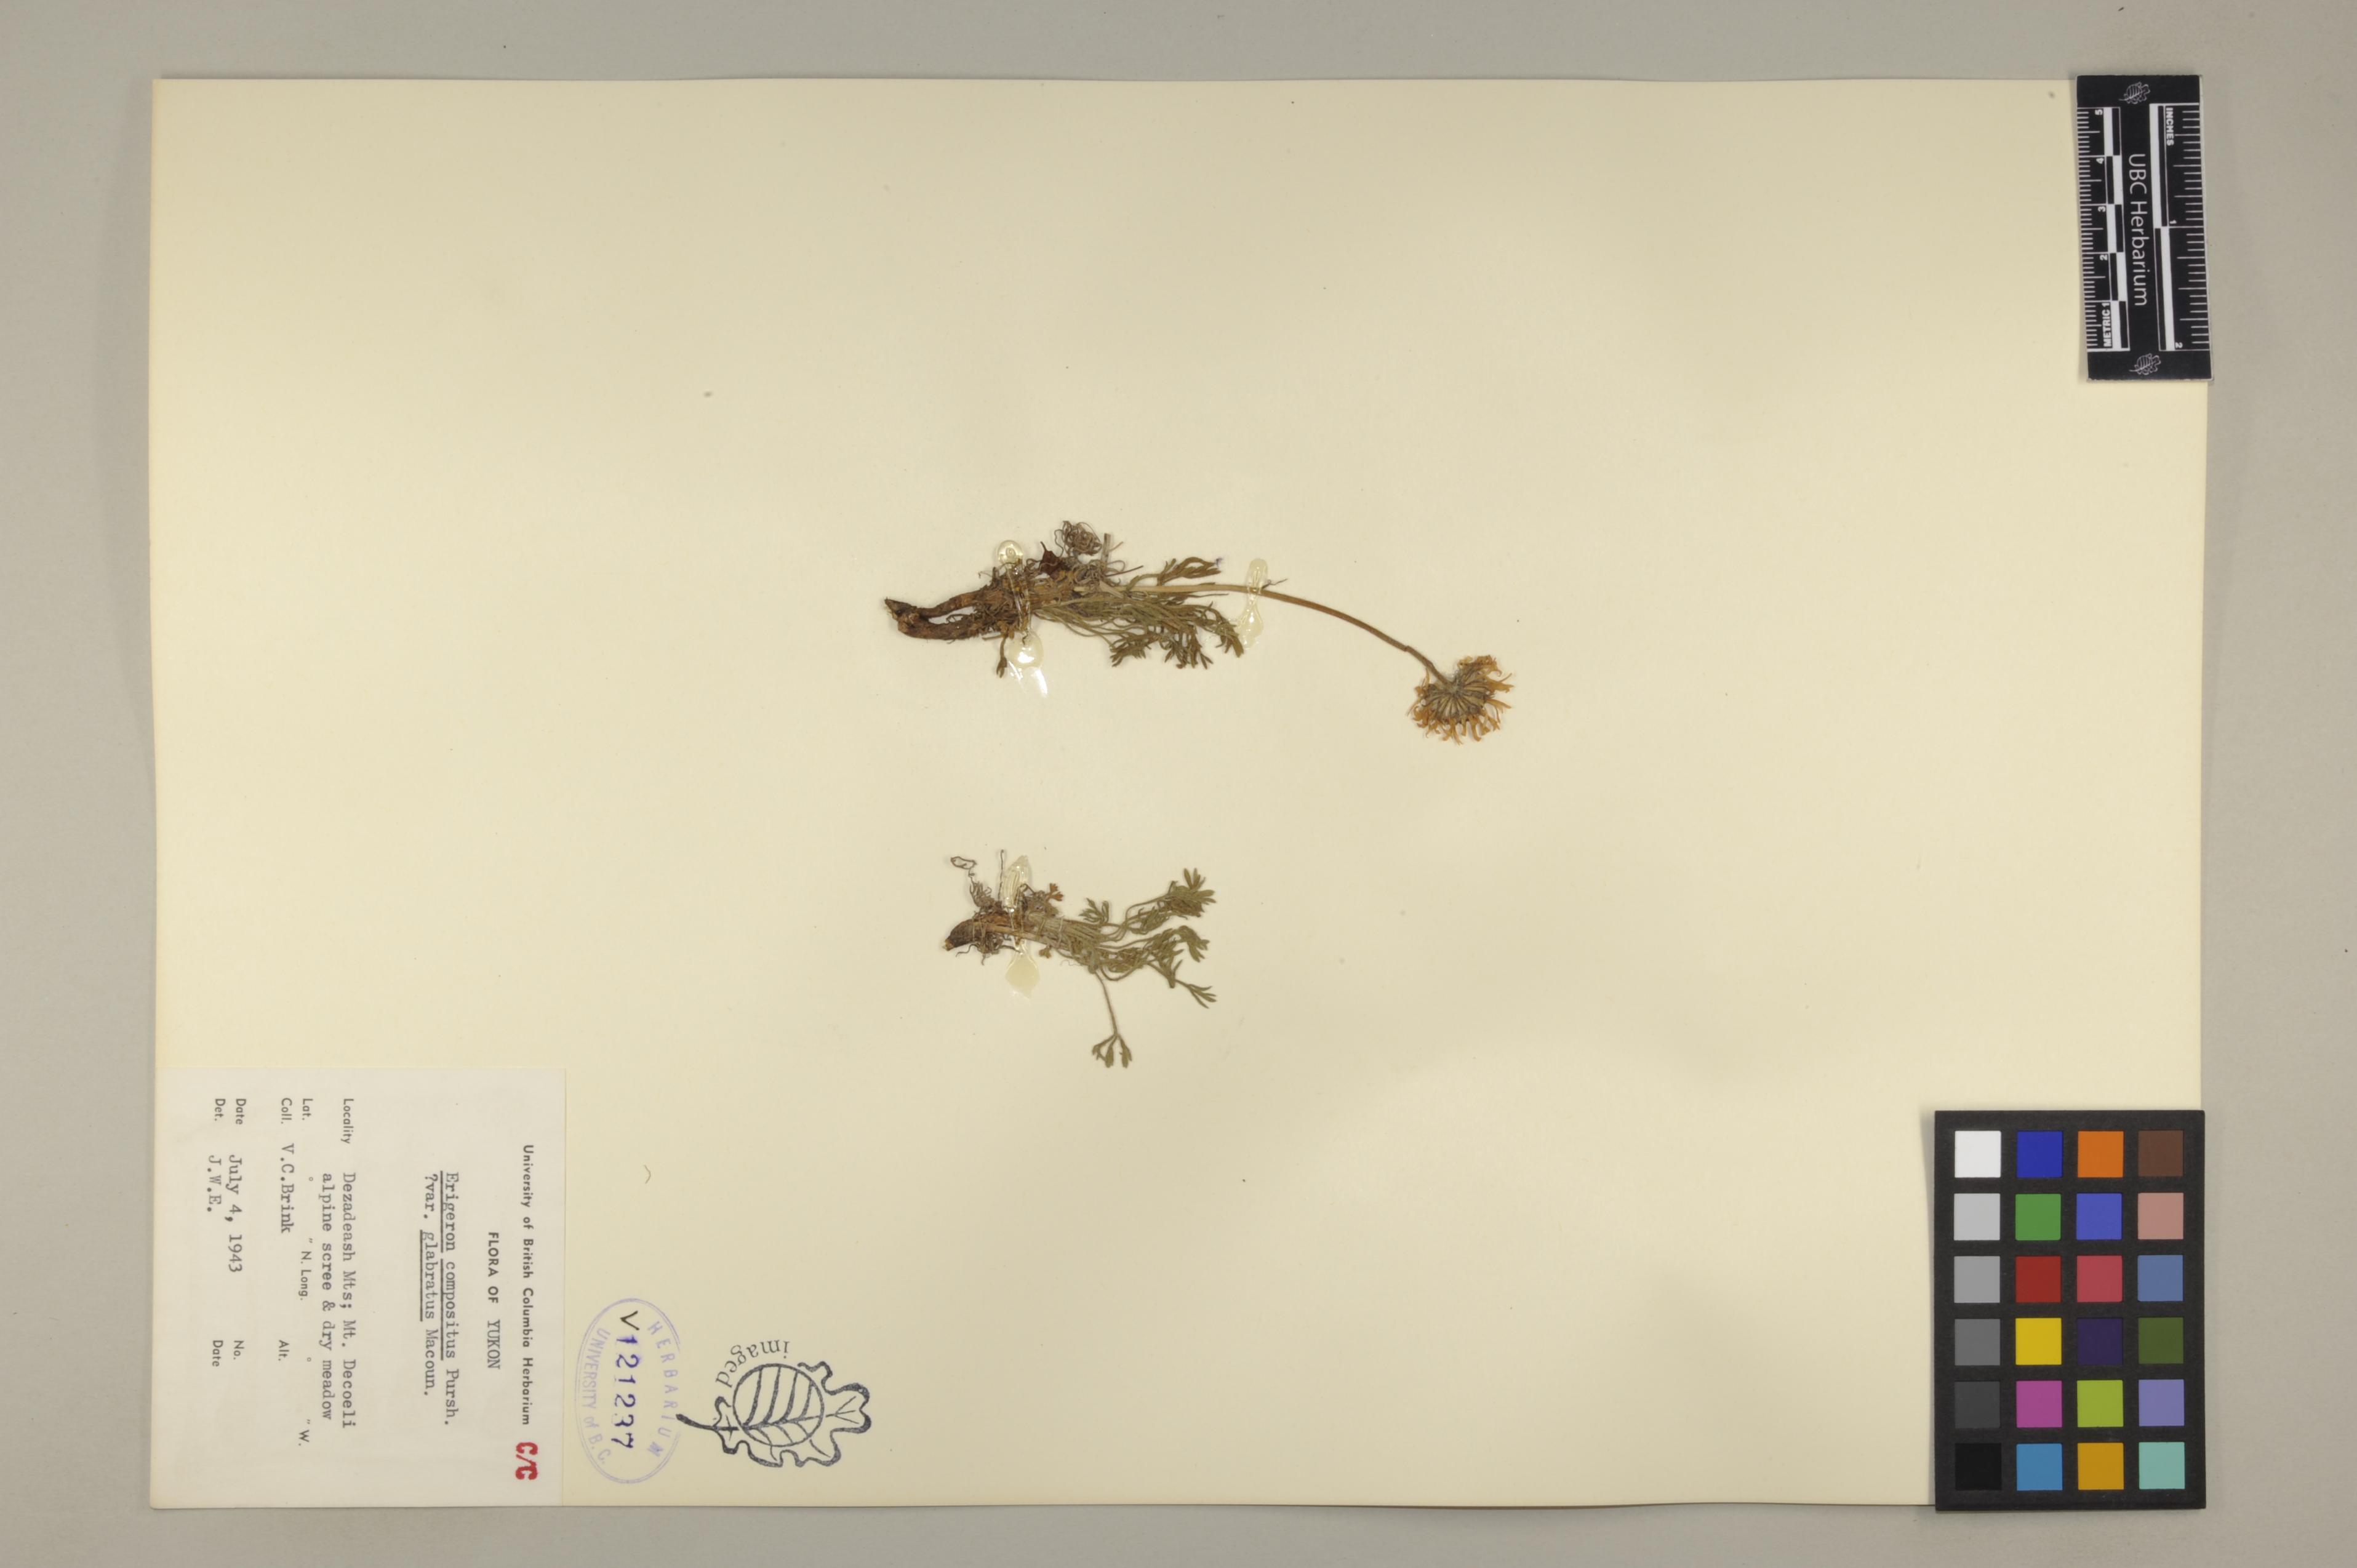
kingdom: Plantae
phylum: Tracheophyta
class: Magnoliopsida
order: Asterales
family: Asteraceae
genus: Erigeron
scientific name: Erigeron compositus
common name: Dwarf mountain fleabane
